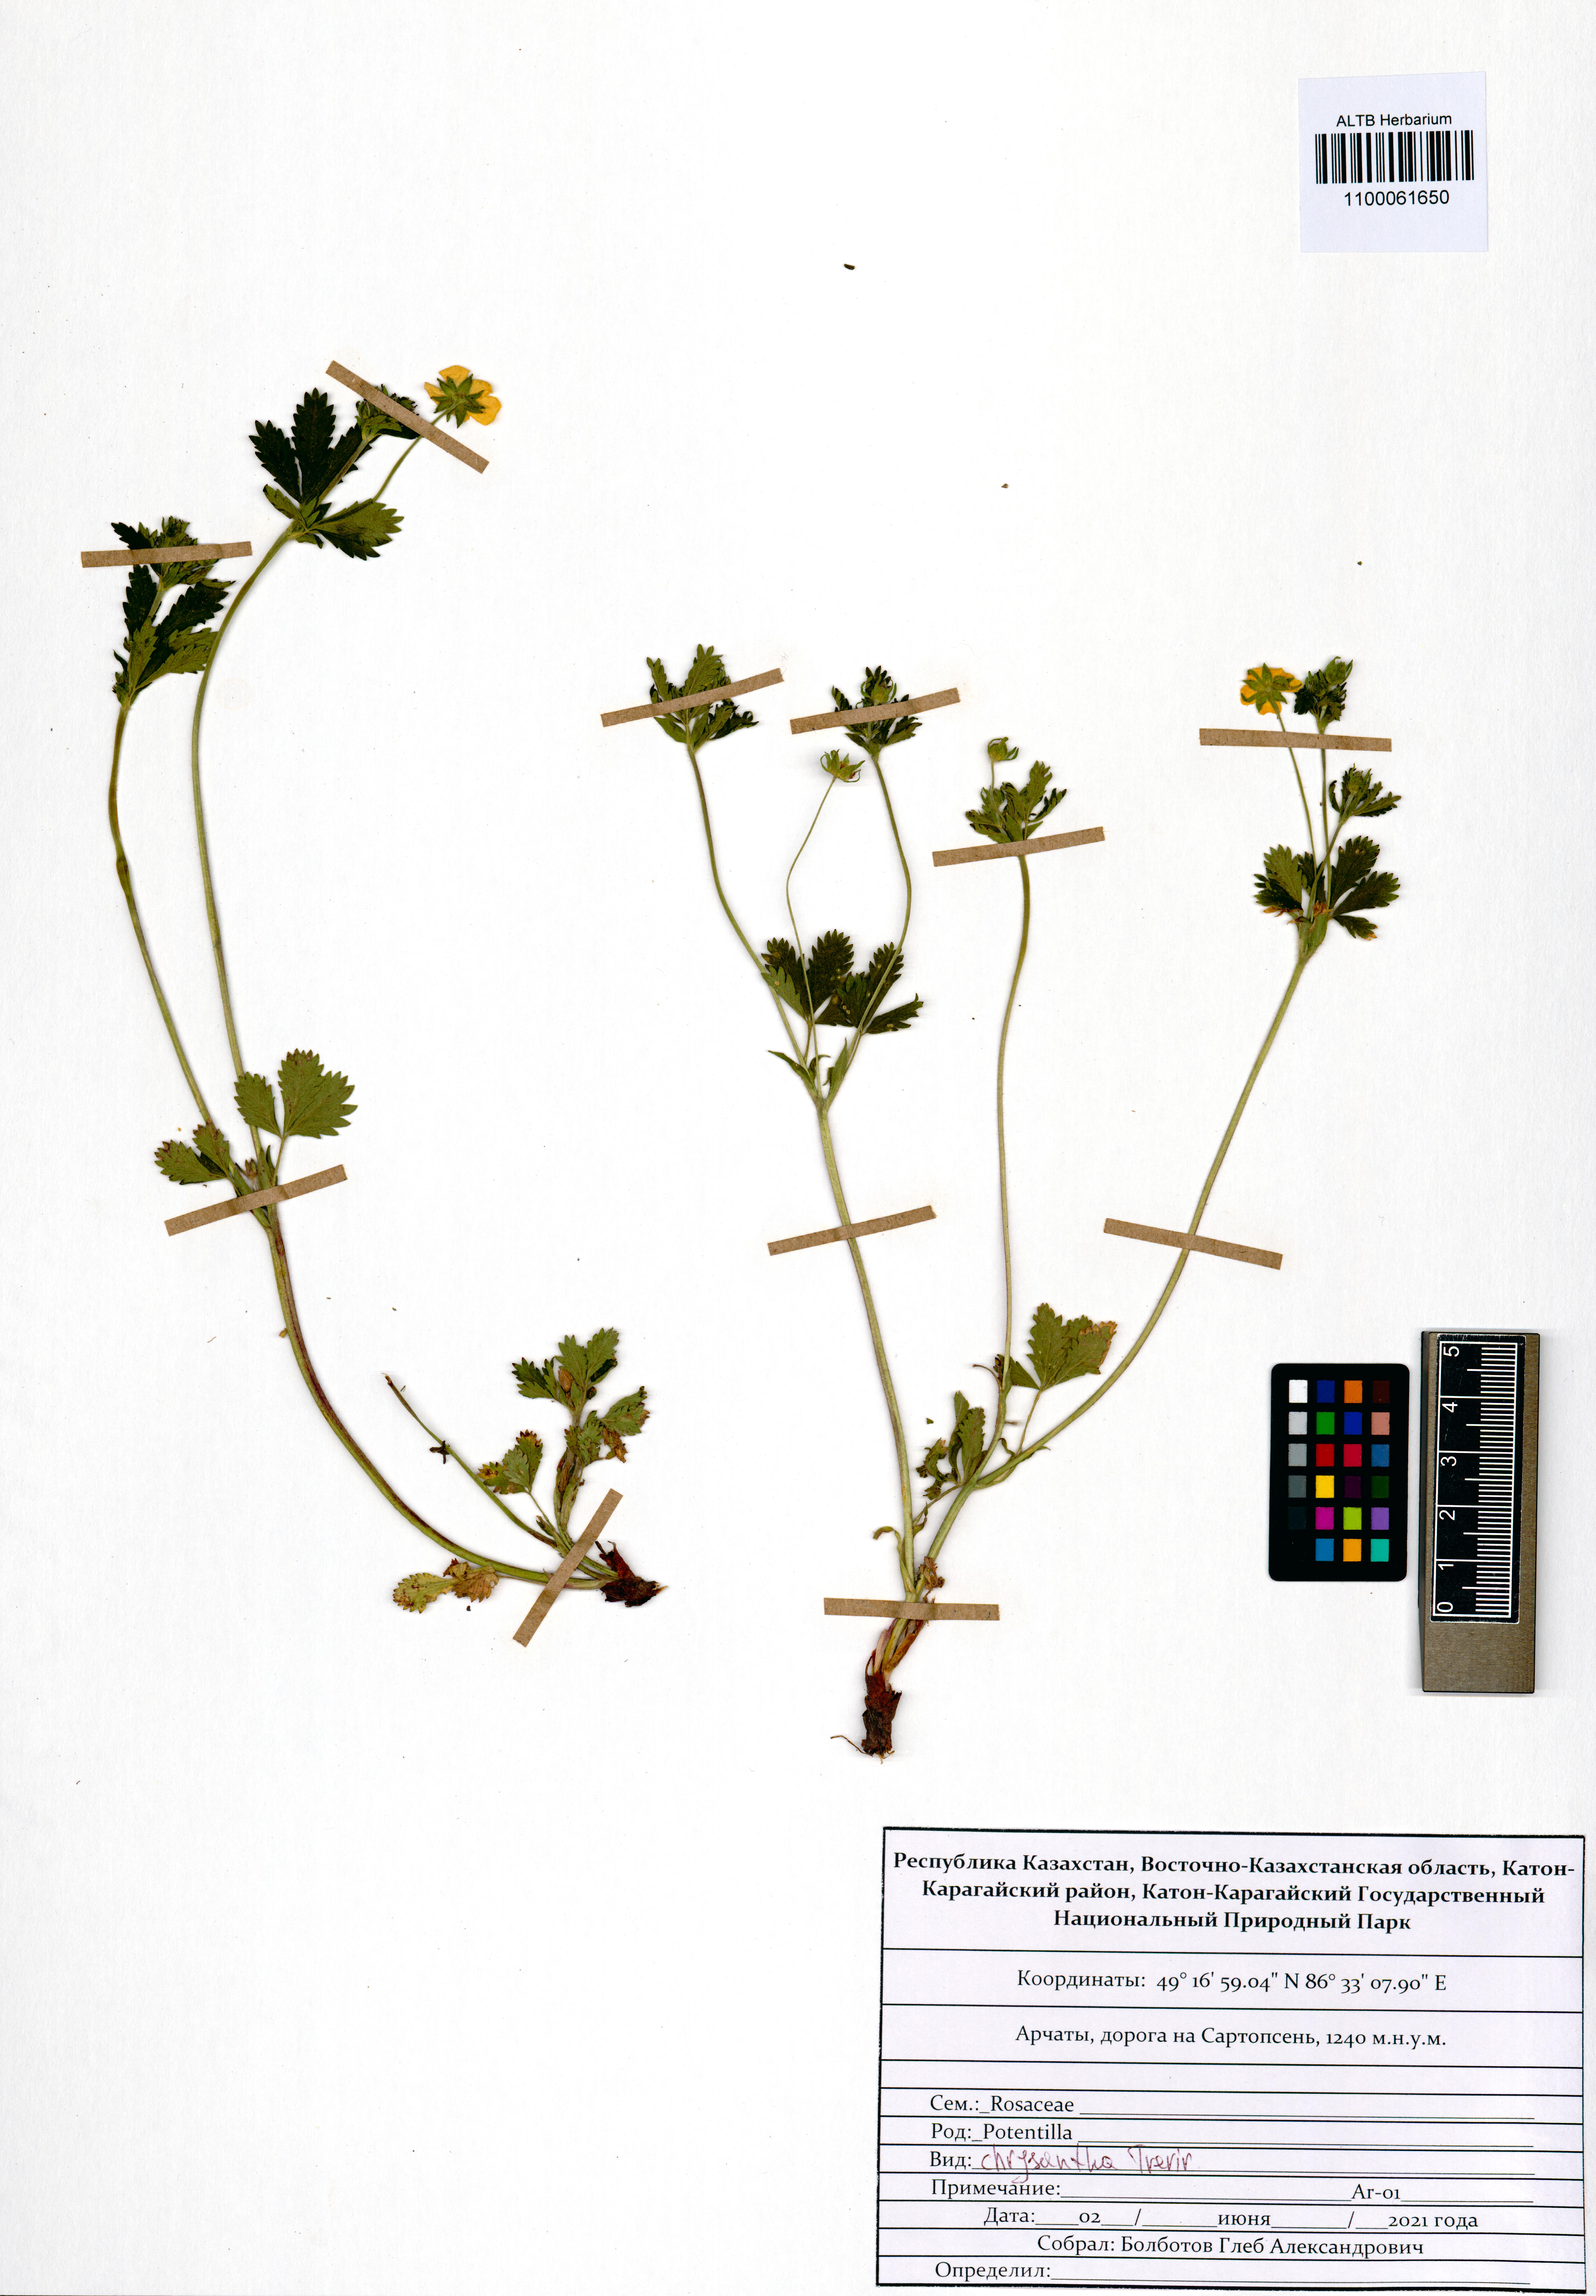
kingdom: Plantae
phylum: Tracheophyta
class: Magnoliopsida
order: Rosales
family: Rosaceae
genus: Potentilla
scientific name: Potentilla chrysantha
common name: Thuringian cinquefoil
